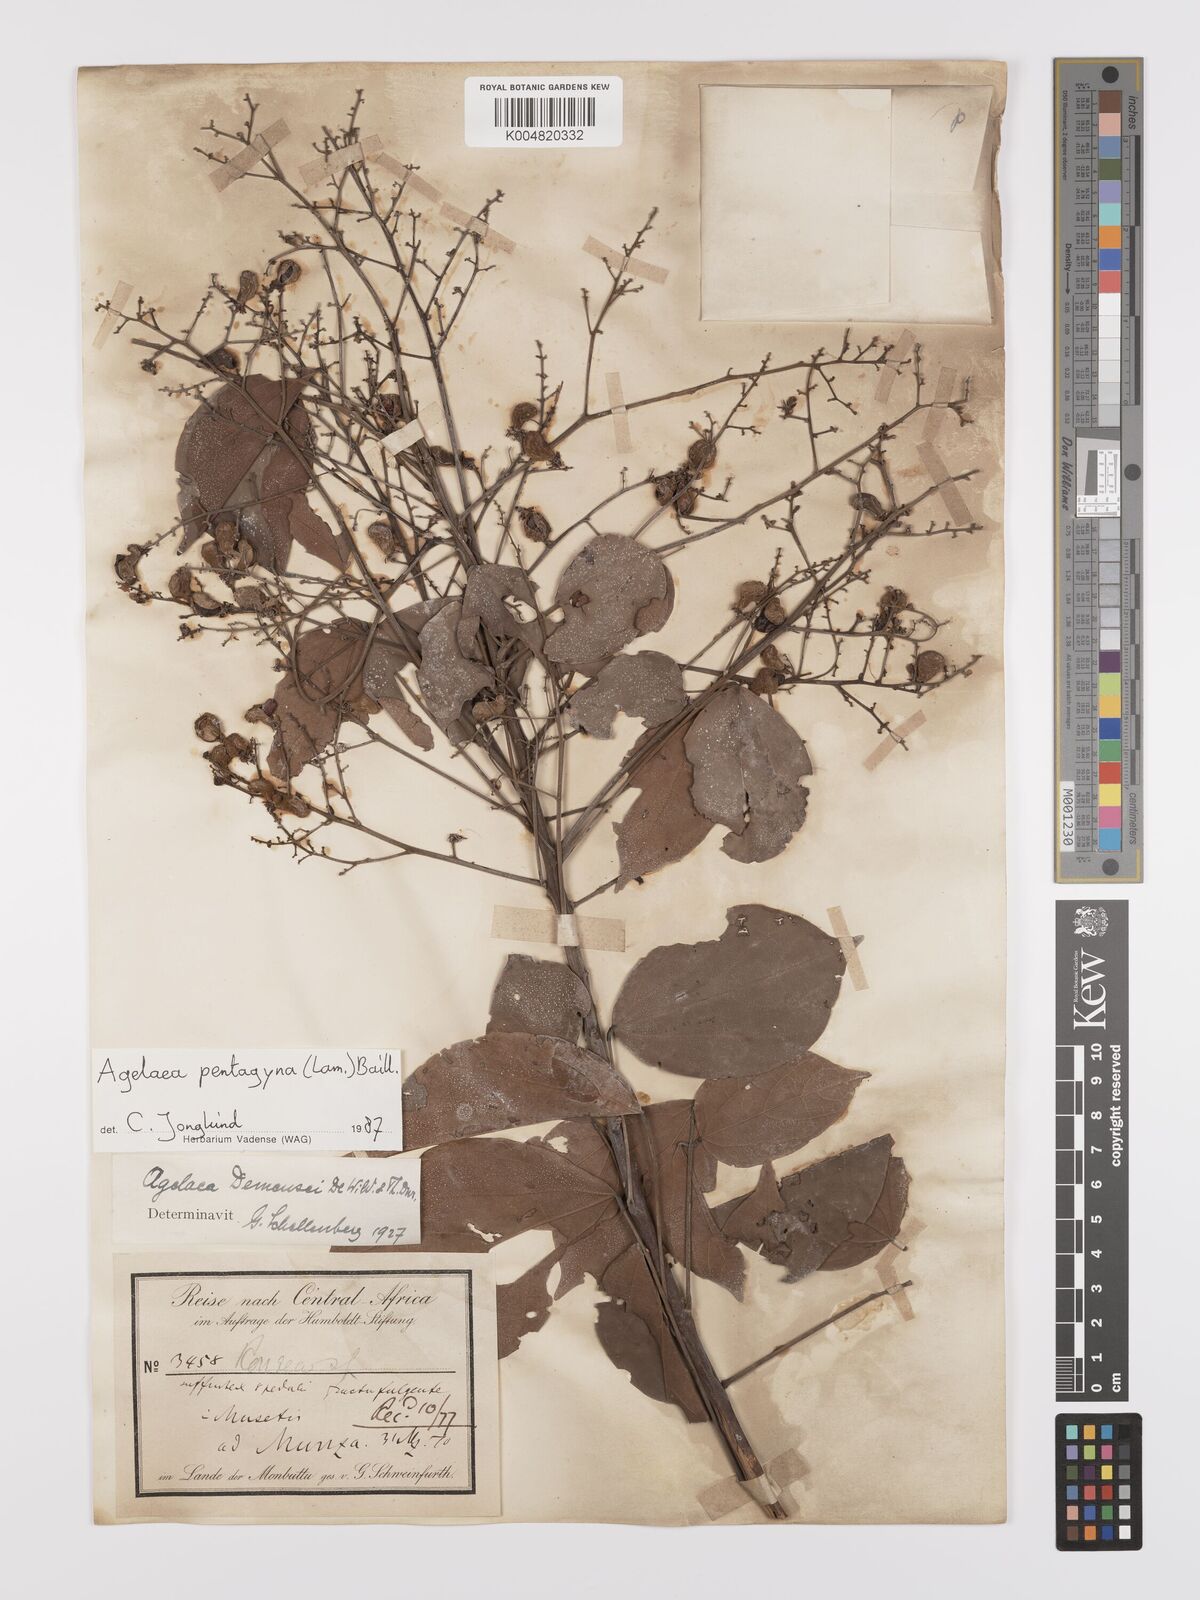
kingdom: Plantae
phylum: Tracheophyta
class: Magnoliopsida
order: Oxalidales
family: Connaraceae
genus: Agelaea
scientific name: Agelaea pentagyna
